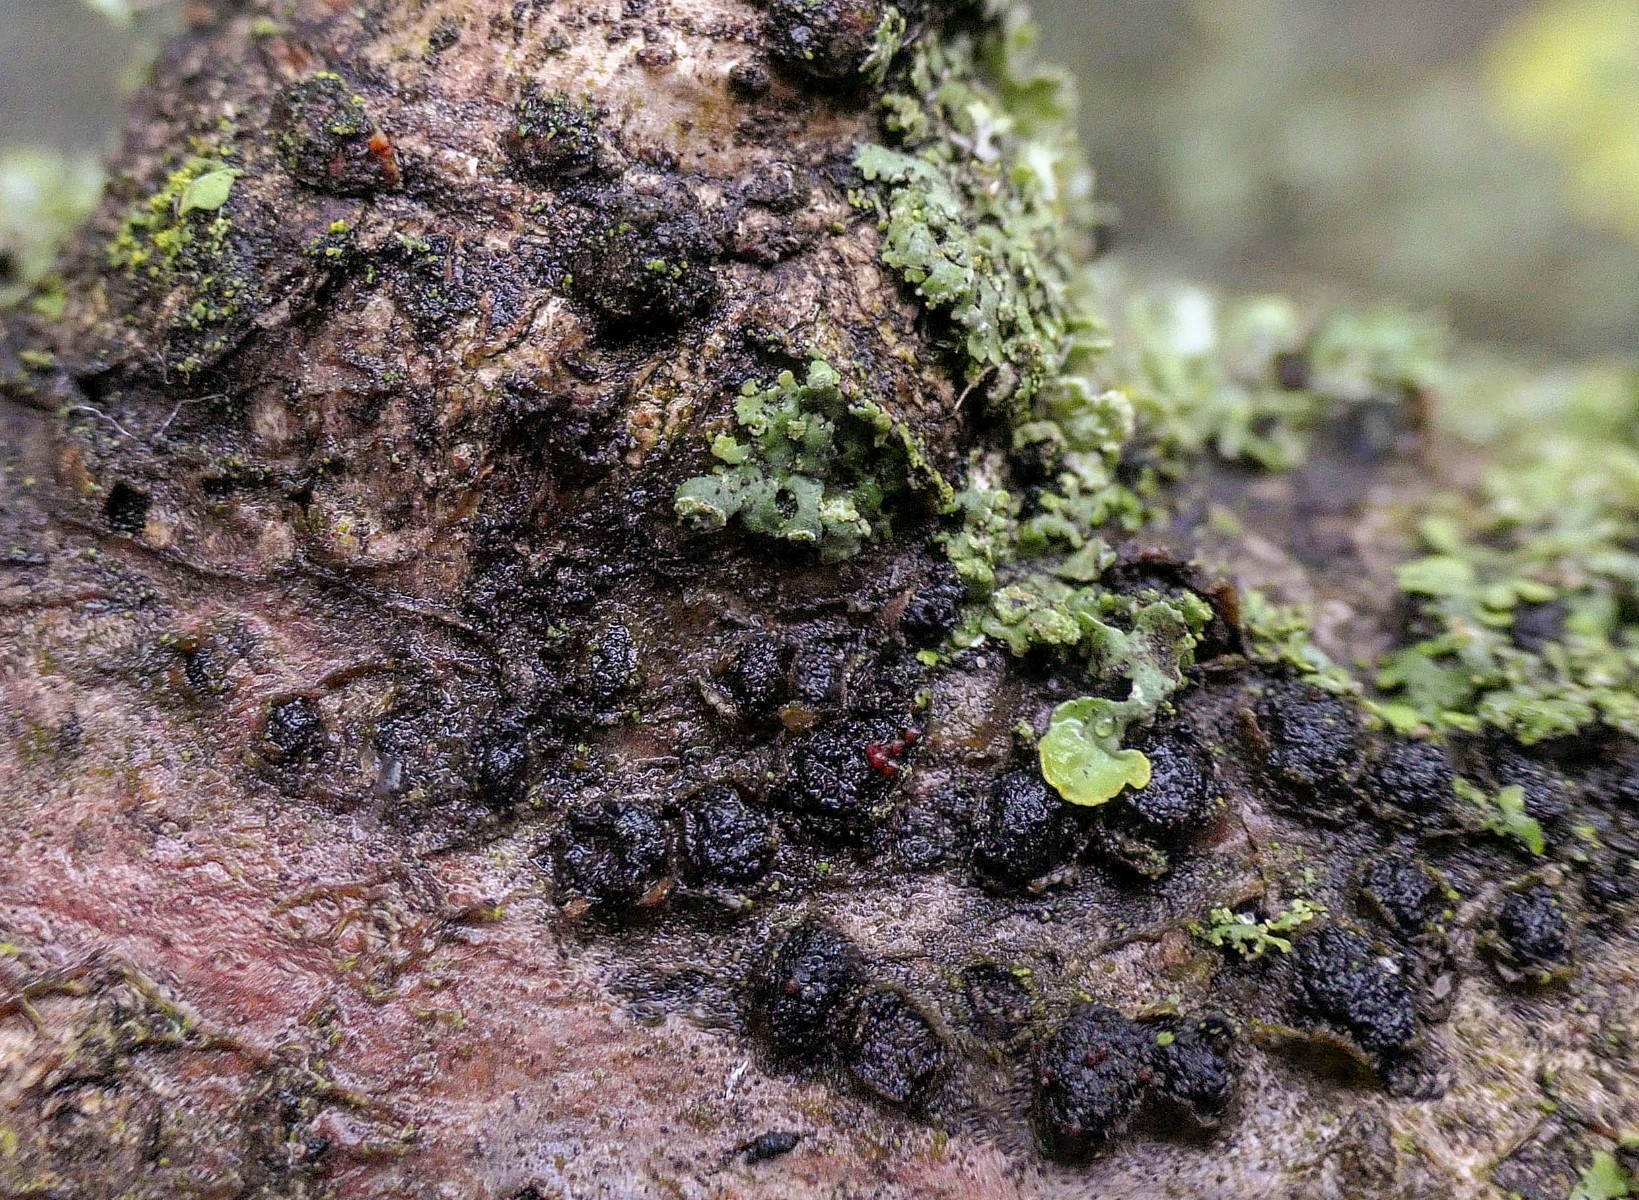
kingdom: Fungi
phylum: Ascomycota
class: Sordariomycetes
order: Hypocreales
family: Nectriaceae
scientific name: Nectriaceae
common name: cinnobersvampfamilien
